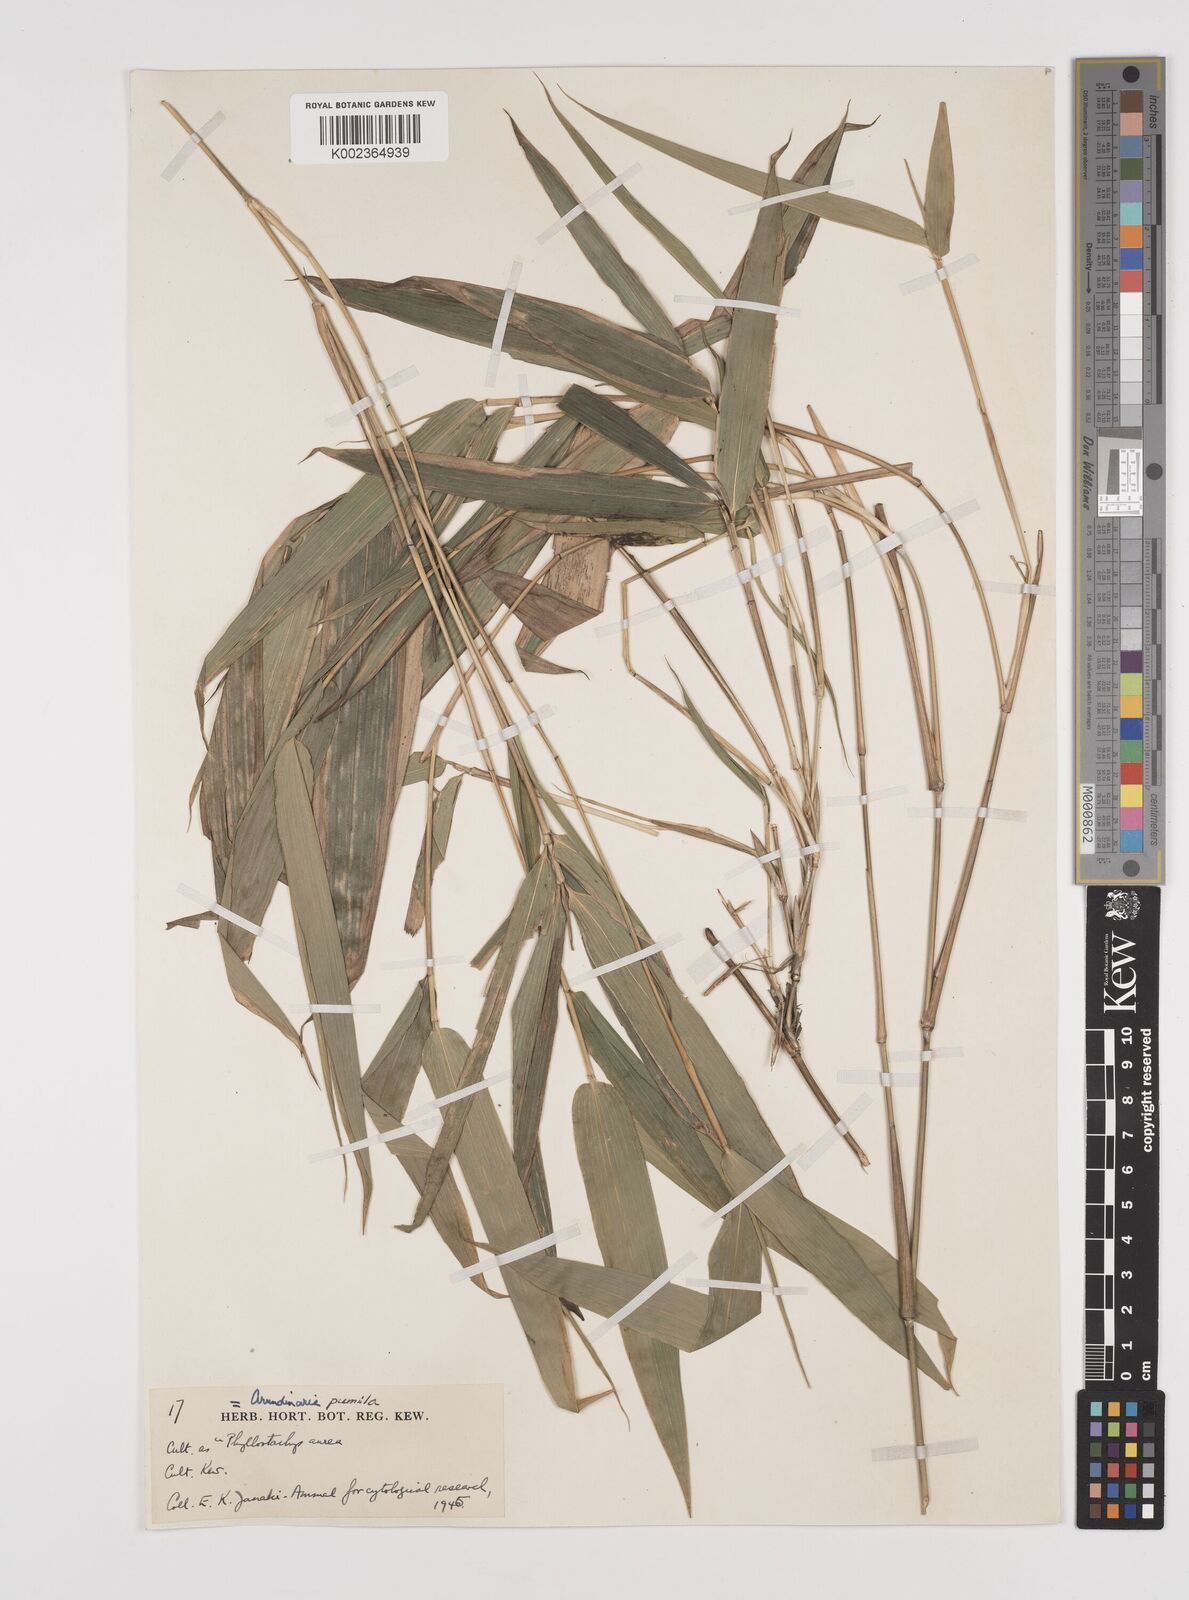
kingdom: Plantae
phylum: Tracheophyta
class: Liliopsida
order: Poales
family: Poaceae
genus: Pleioblastus
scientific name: Pleioblastus argenteostriatus
